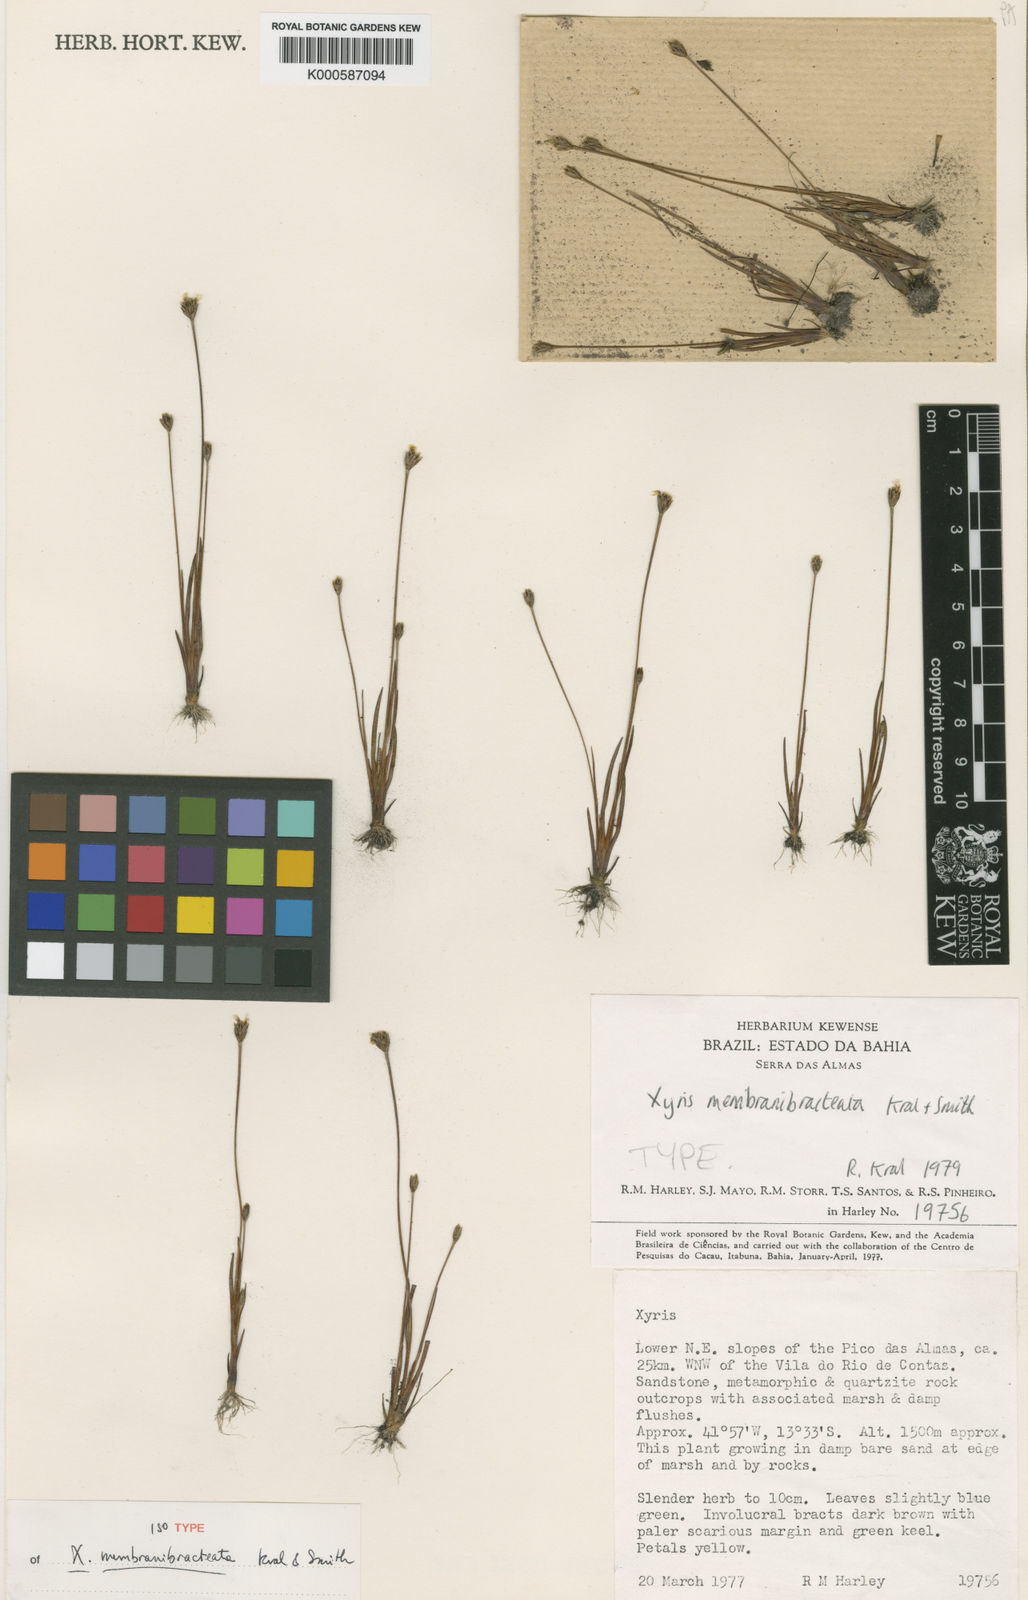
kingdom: Plantae
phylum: Tracheophyta
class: Liliopsida
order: Poales
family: Xyridaceae
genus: Xyris
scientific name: Xyris membranibracteata
